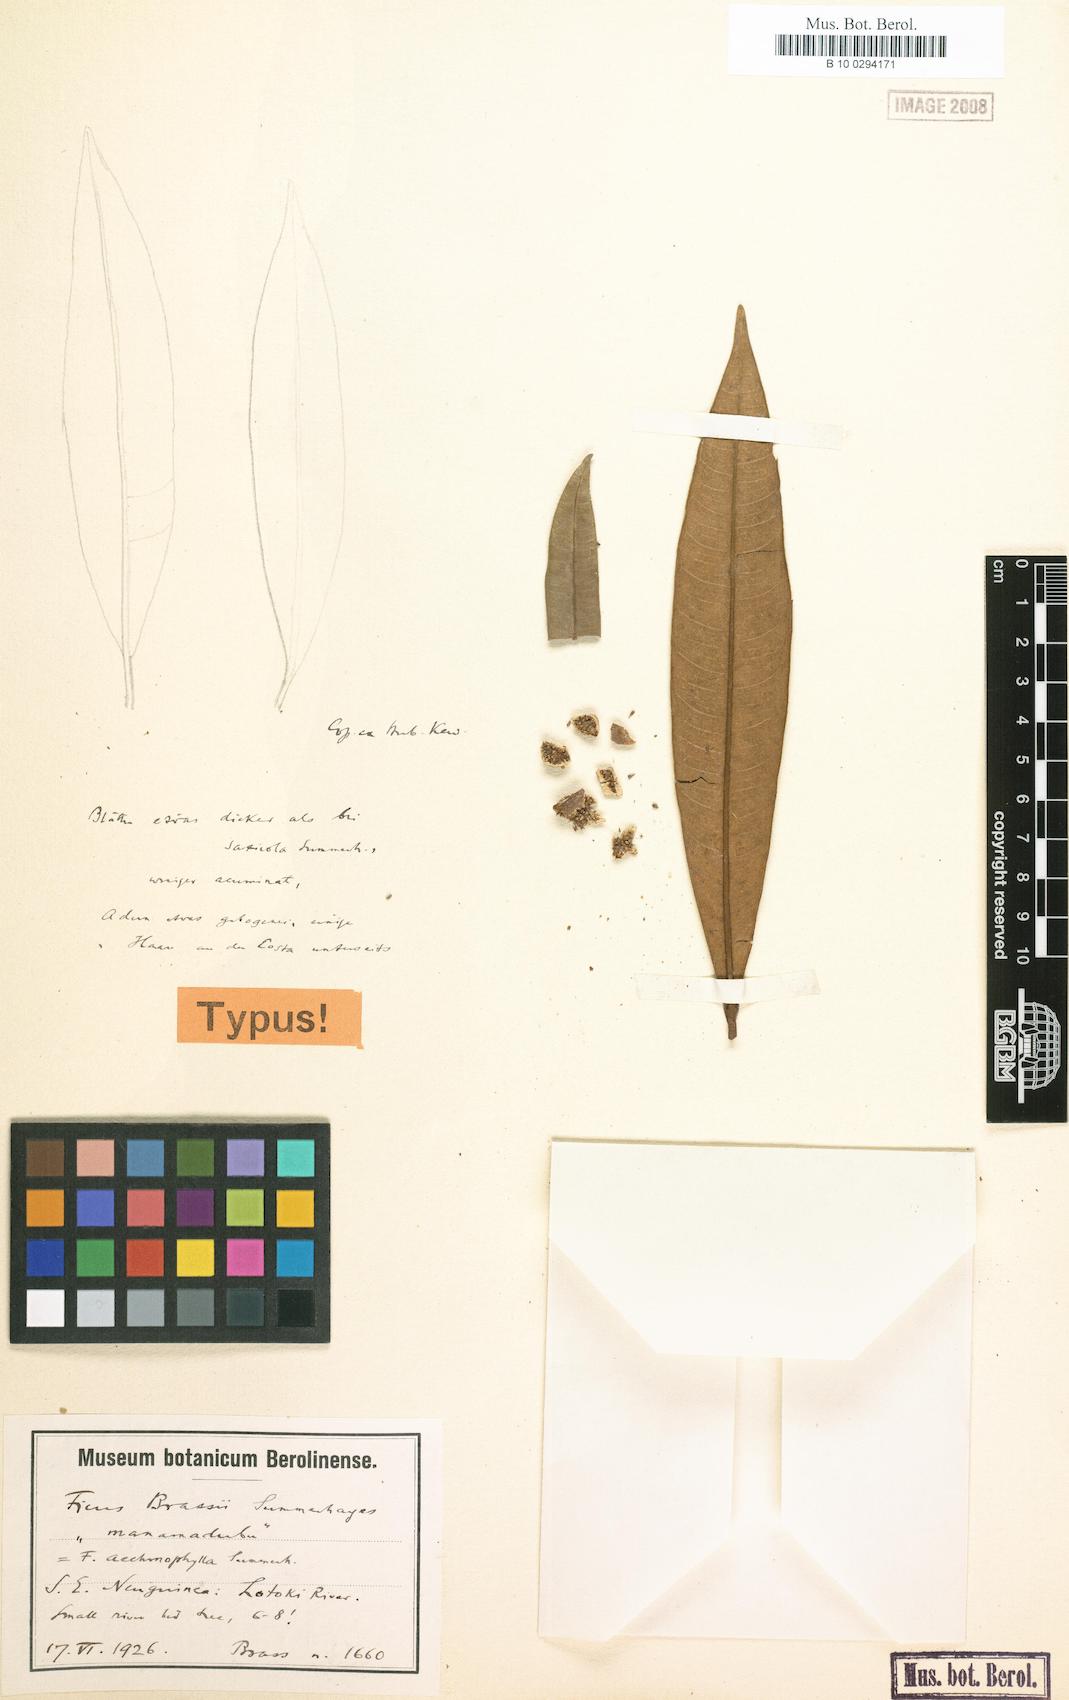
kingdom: Plantae
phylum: Tracheophyta
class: Magnoliopsida
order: Rosales
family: Moraceae
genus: Ficus
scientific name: Ficus subtrinervia
